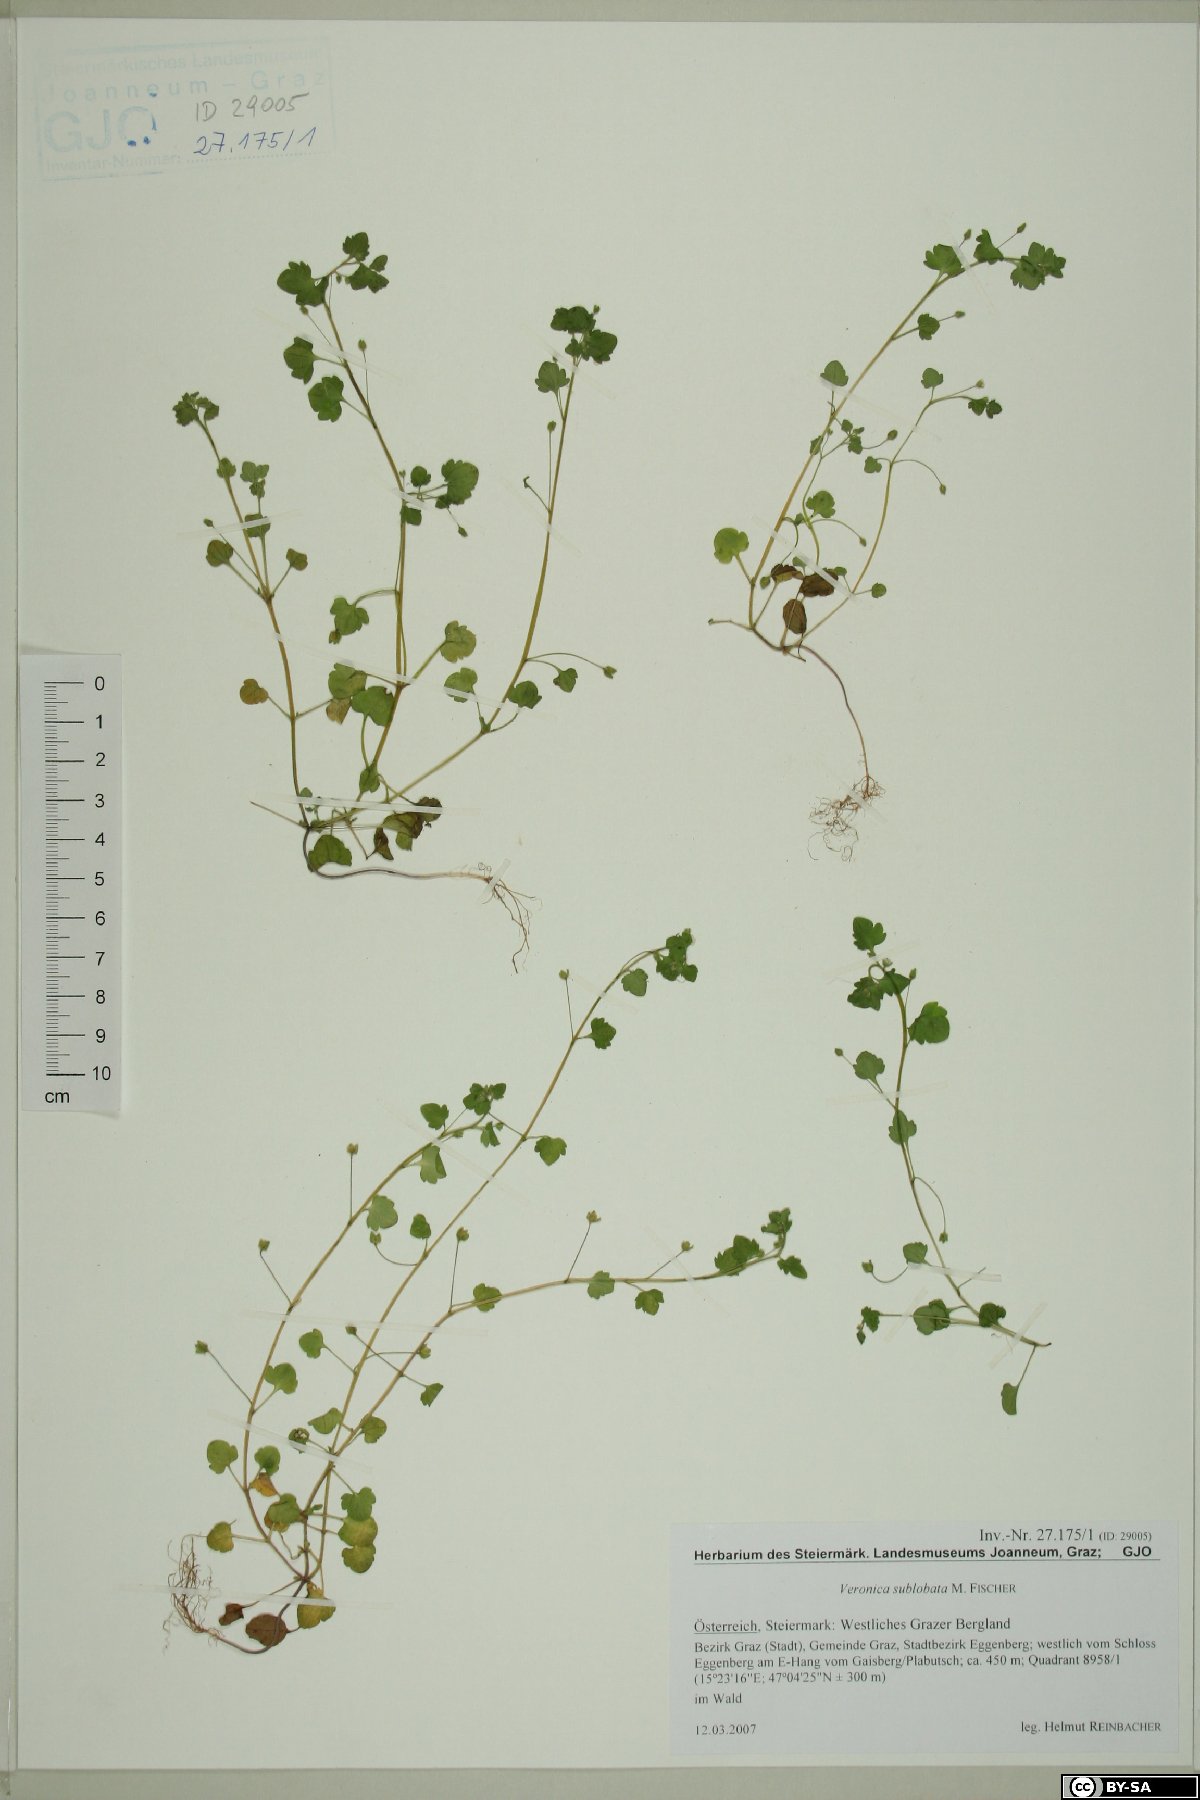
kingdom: Plantae
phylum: Tracheophyta
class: Magnoliopsida
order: Lamiales
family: Plantaginaceae
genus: Veronica
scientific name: Veronica sublobata
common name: False ivy-leaved speedwell
